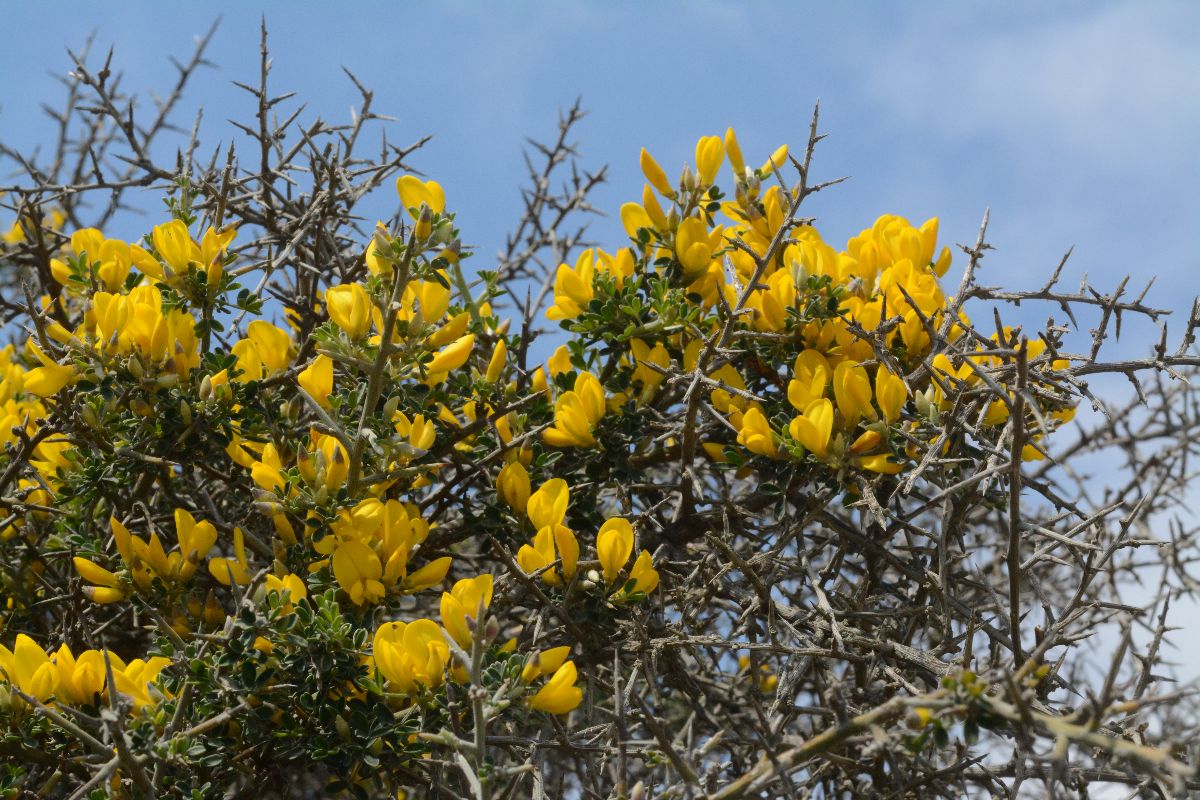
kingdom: Plantae
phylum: Tracheophyta
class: Magnoliopsida
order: Fabales
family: Fabaceae
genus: Calicotome
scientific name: Calicotome villosa
